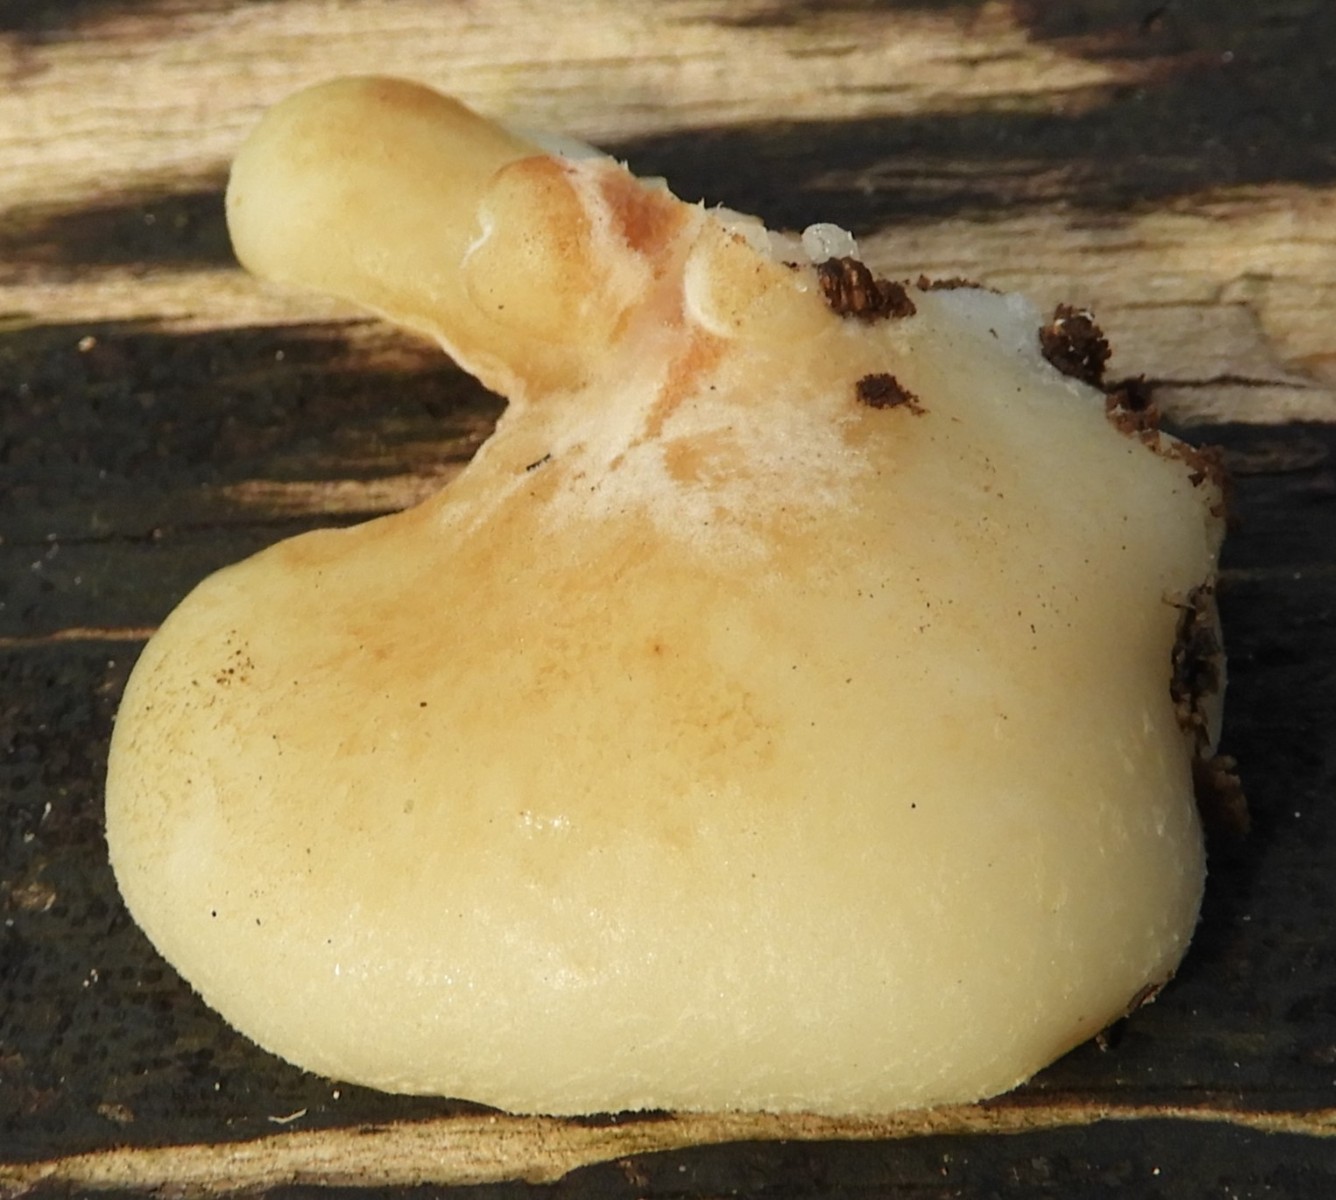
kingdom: Fungi
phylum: Basidiomycota
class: Agaricomycetes
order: Agaricales
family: Crepidotaceae
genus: Crepidotus
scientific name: Crepidotus mollis
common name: blød muslingesvamp
